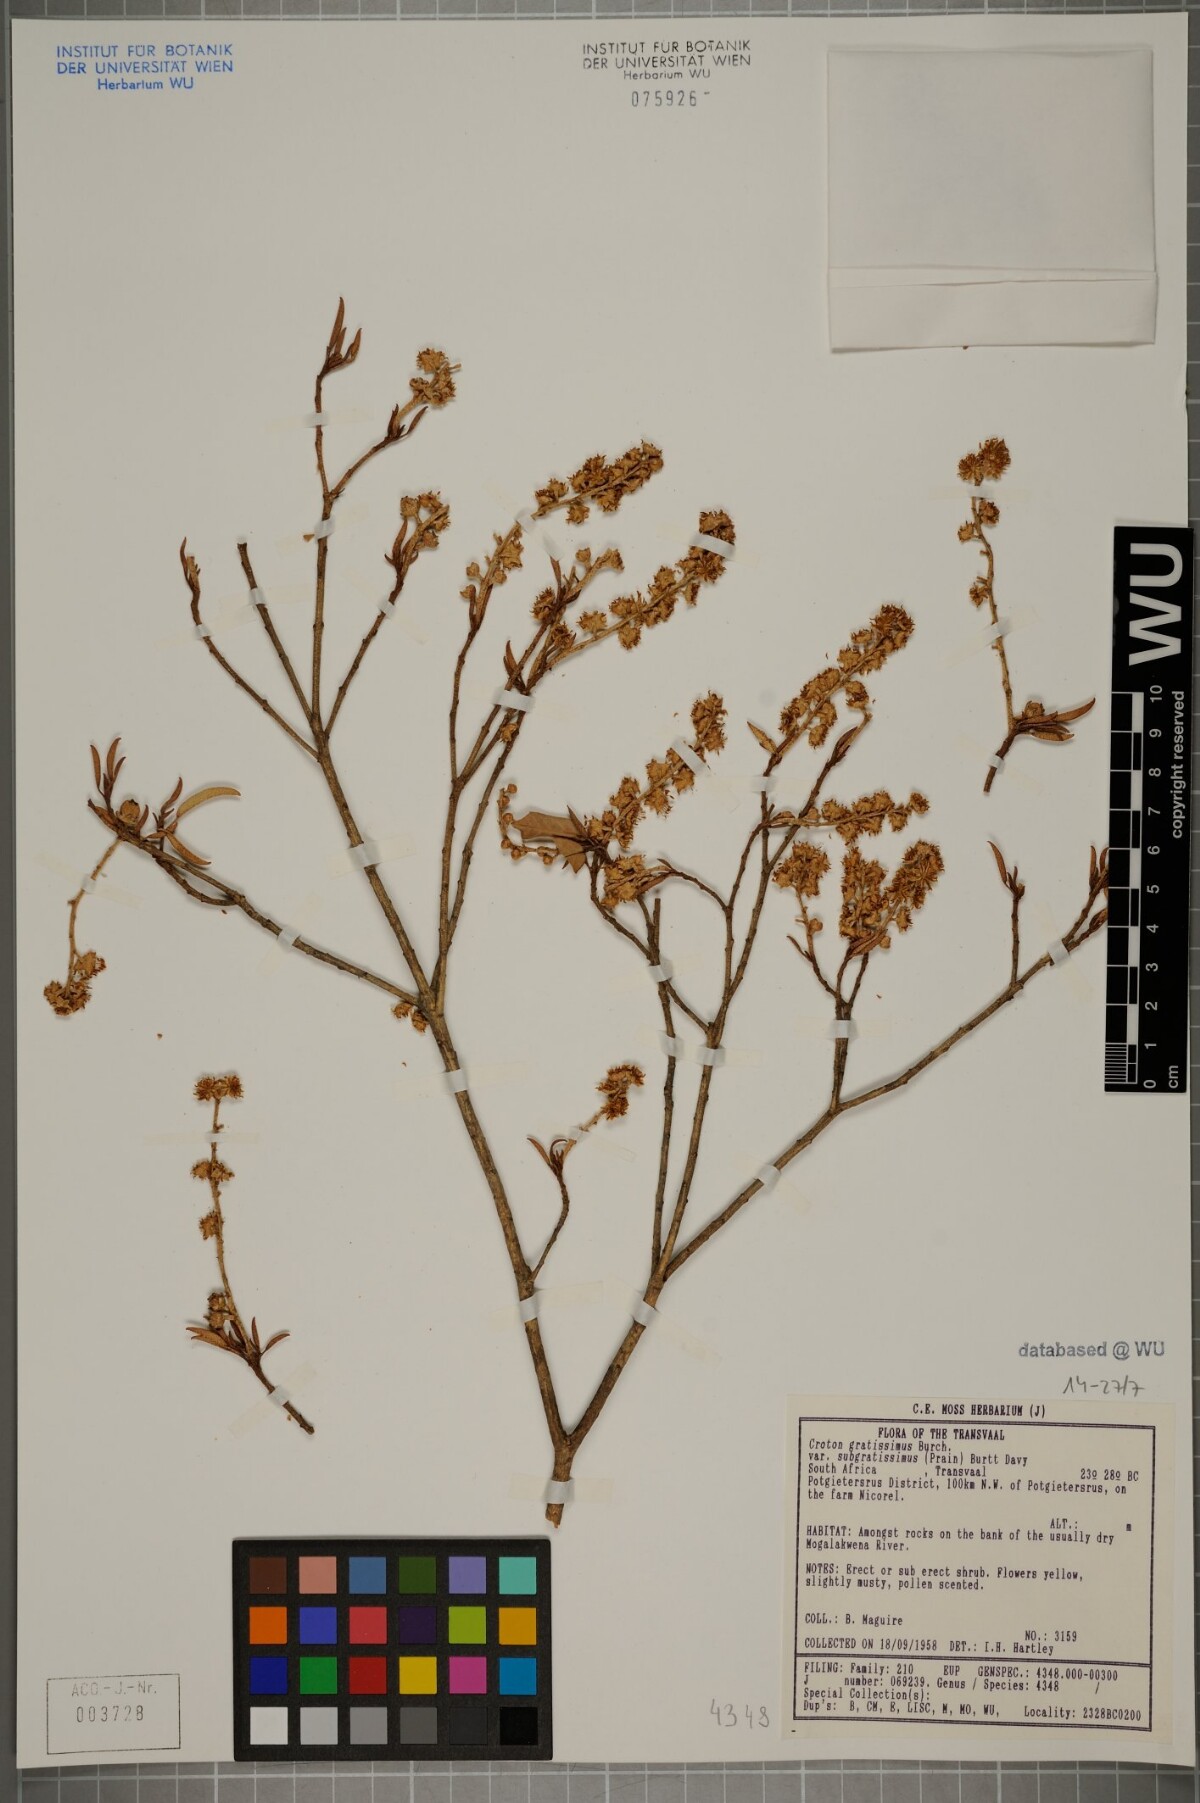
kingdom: Plantae
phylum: Tracheophyta
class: Magnoliopsida
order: Malpighiales
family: Euphorbiaceae
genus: Croton
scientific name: Croton gratissimus
